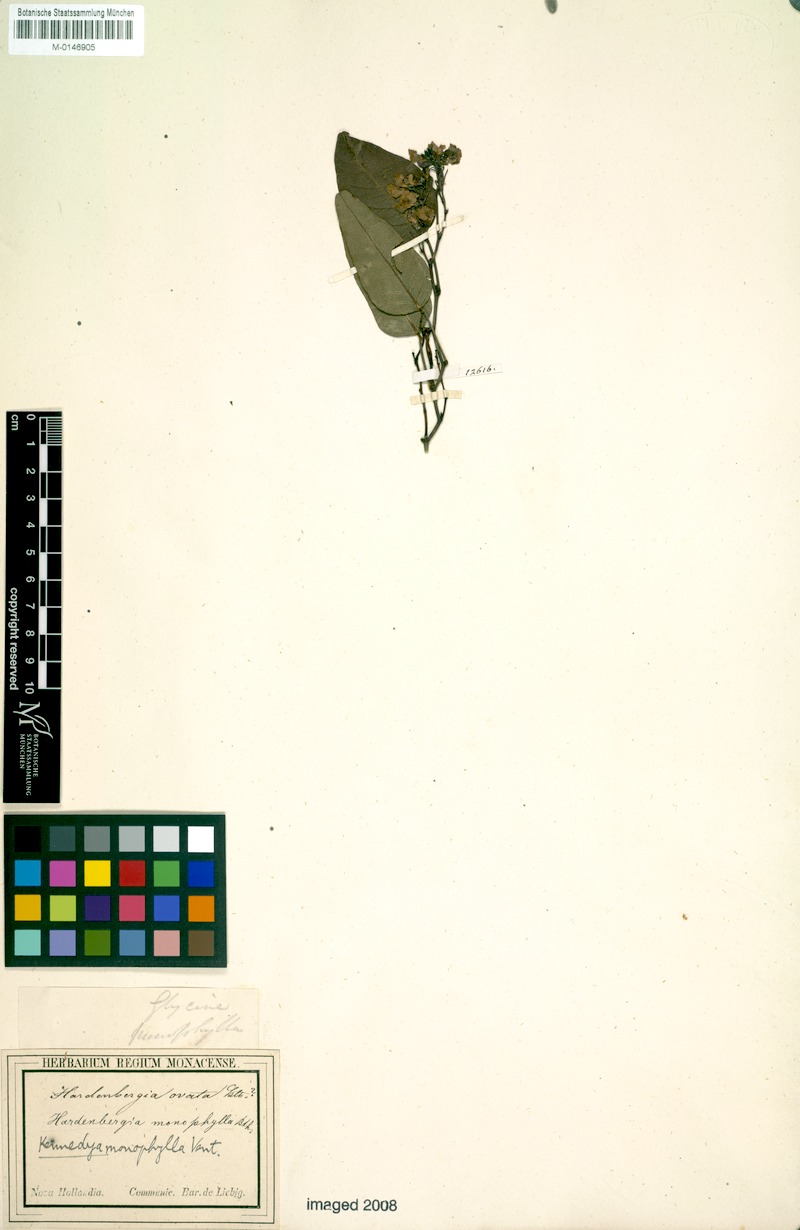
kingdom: Plantae
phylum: Tracheophyta
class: Magnoliopsida
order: Fabales
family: Fabaceae
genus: Hardenbergia
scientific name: Hardenbergia violacea
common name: Coral-pea
